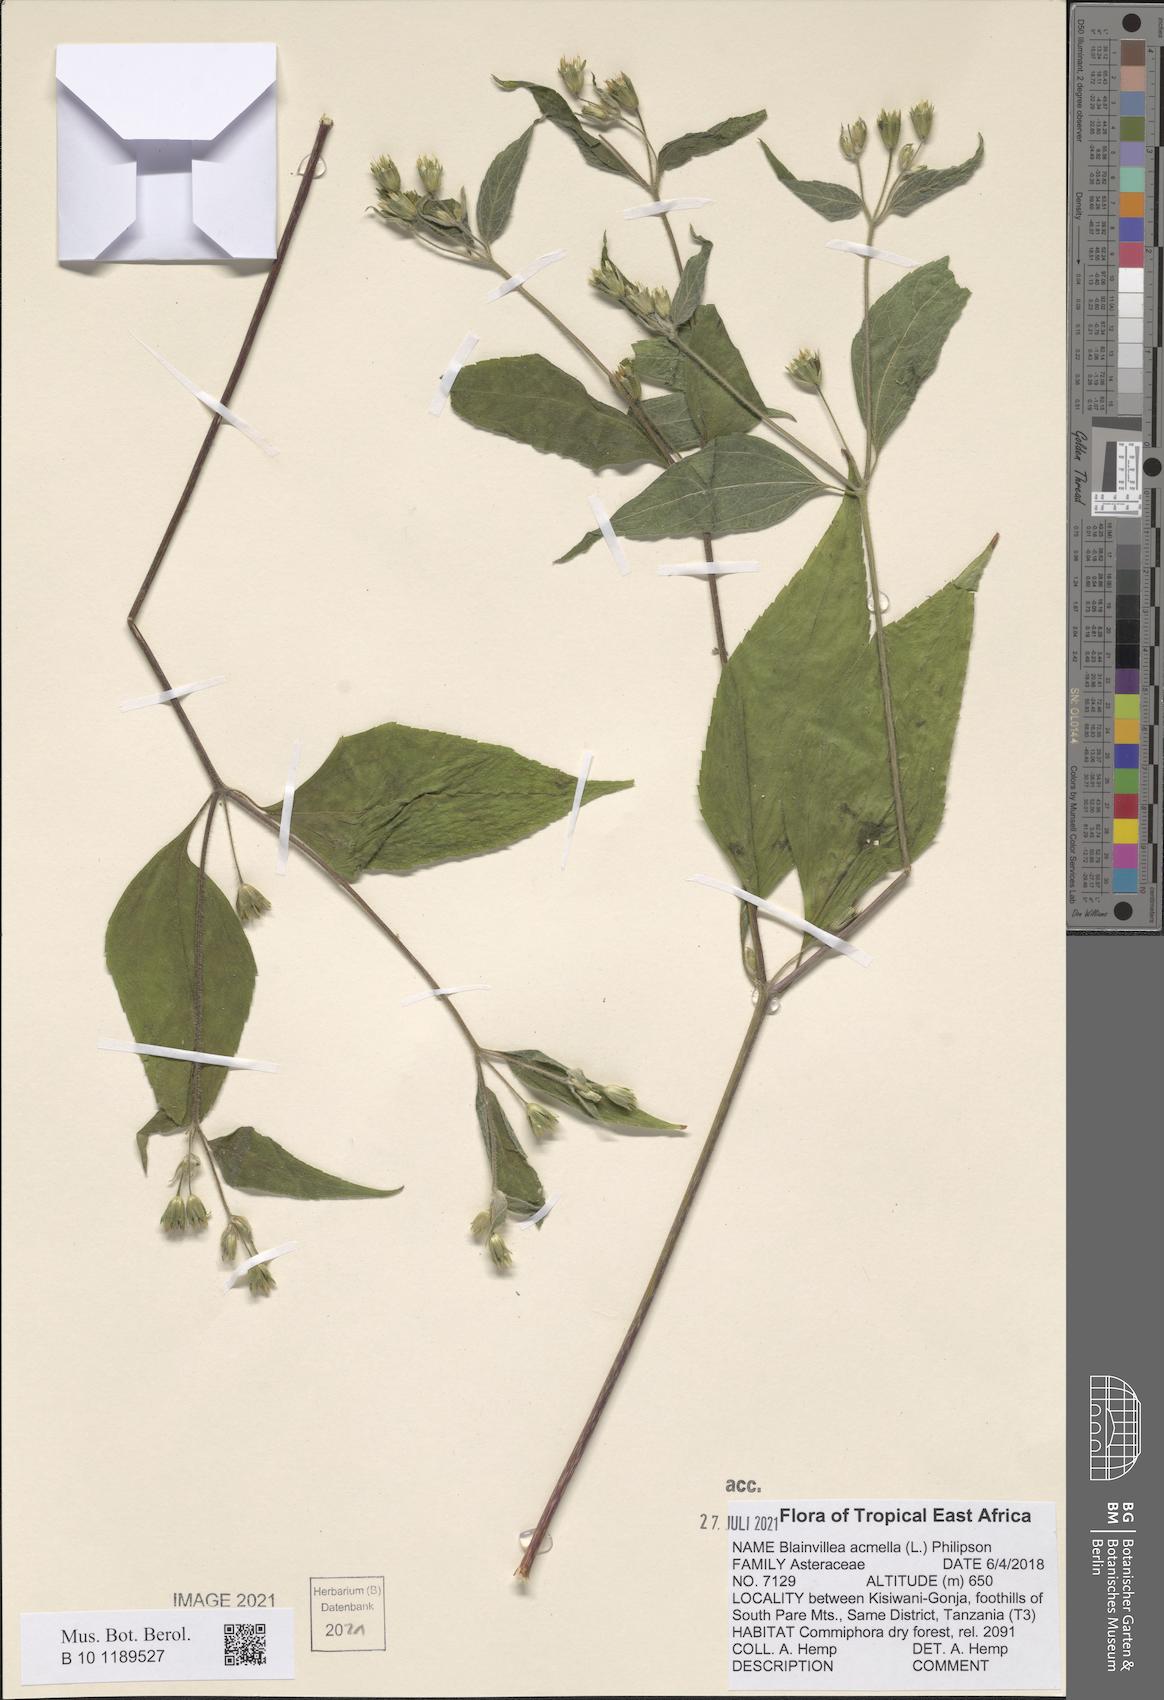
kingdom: Plantae
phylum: Tracheophyta
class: Magnoliopsida
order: Asterales
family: Asteraceae
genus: Blainvillea
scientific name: Blainvillea acmella
